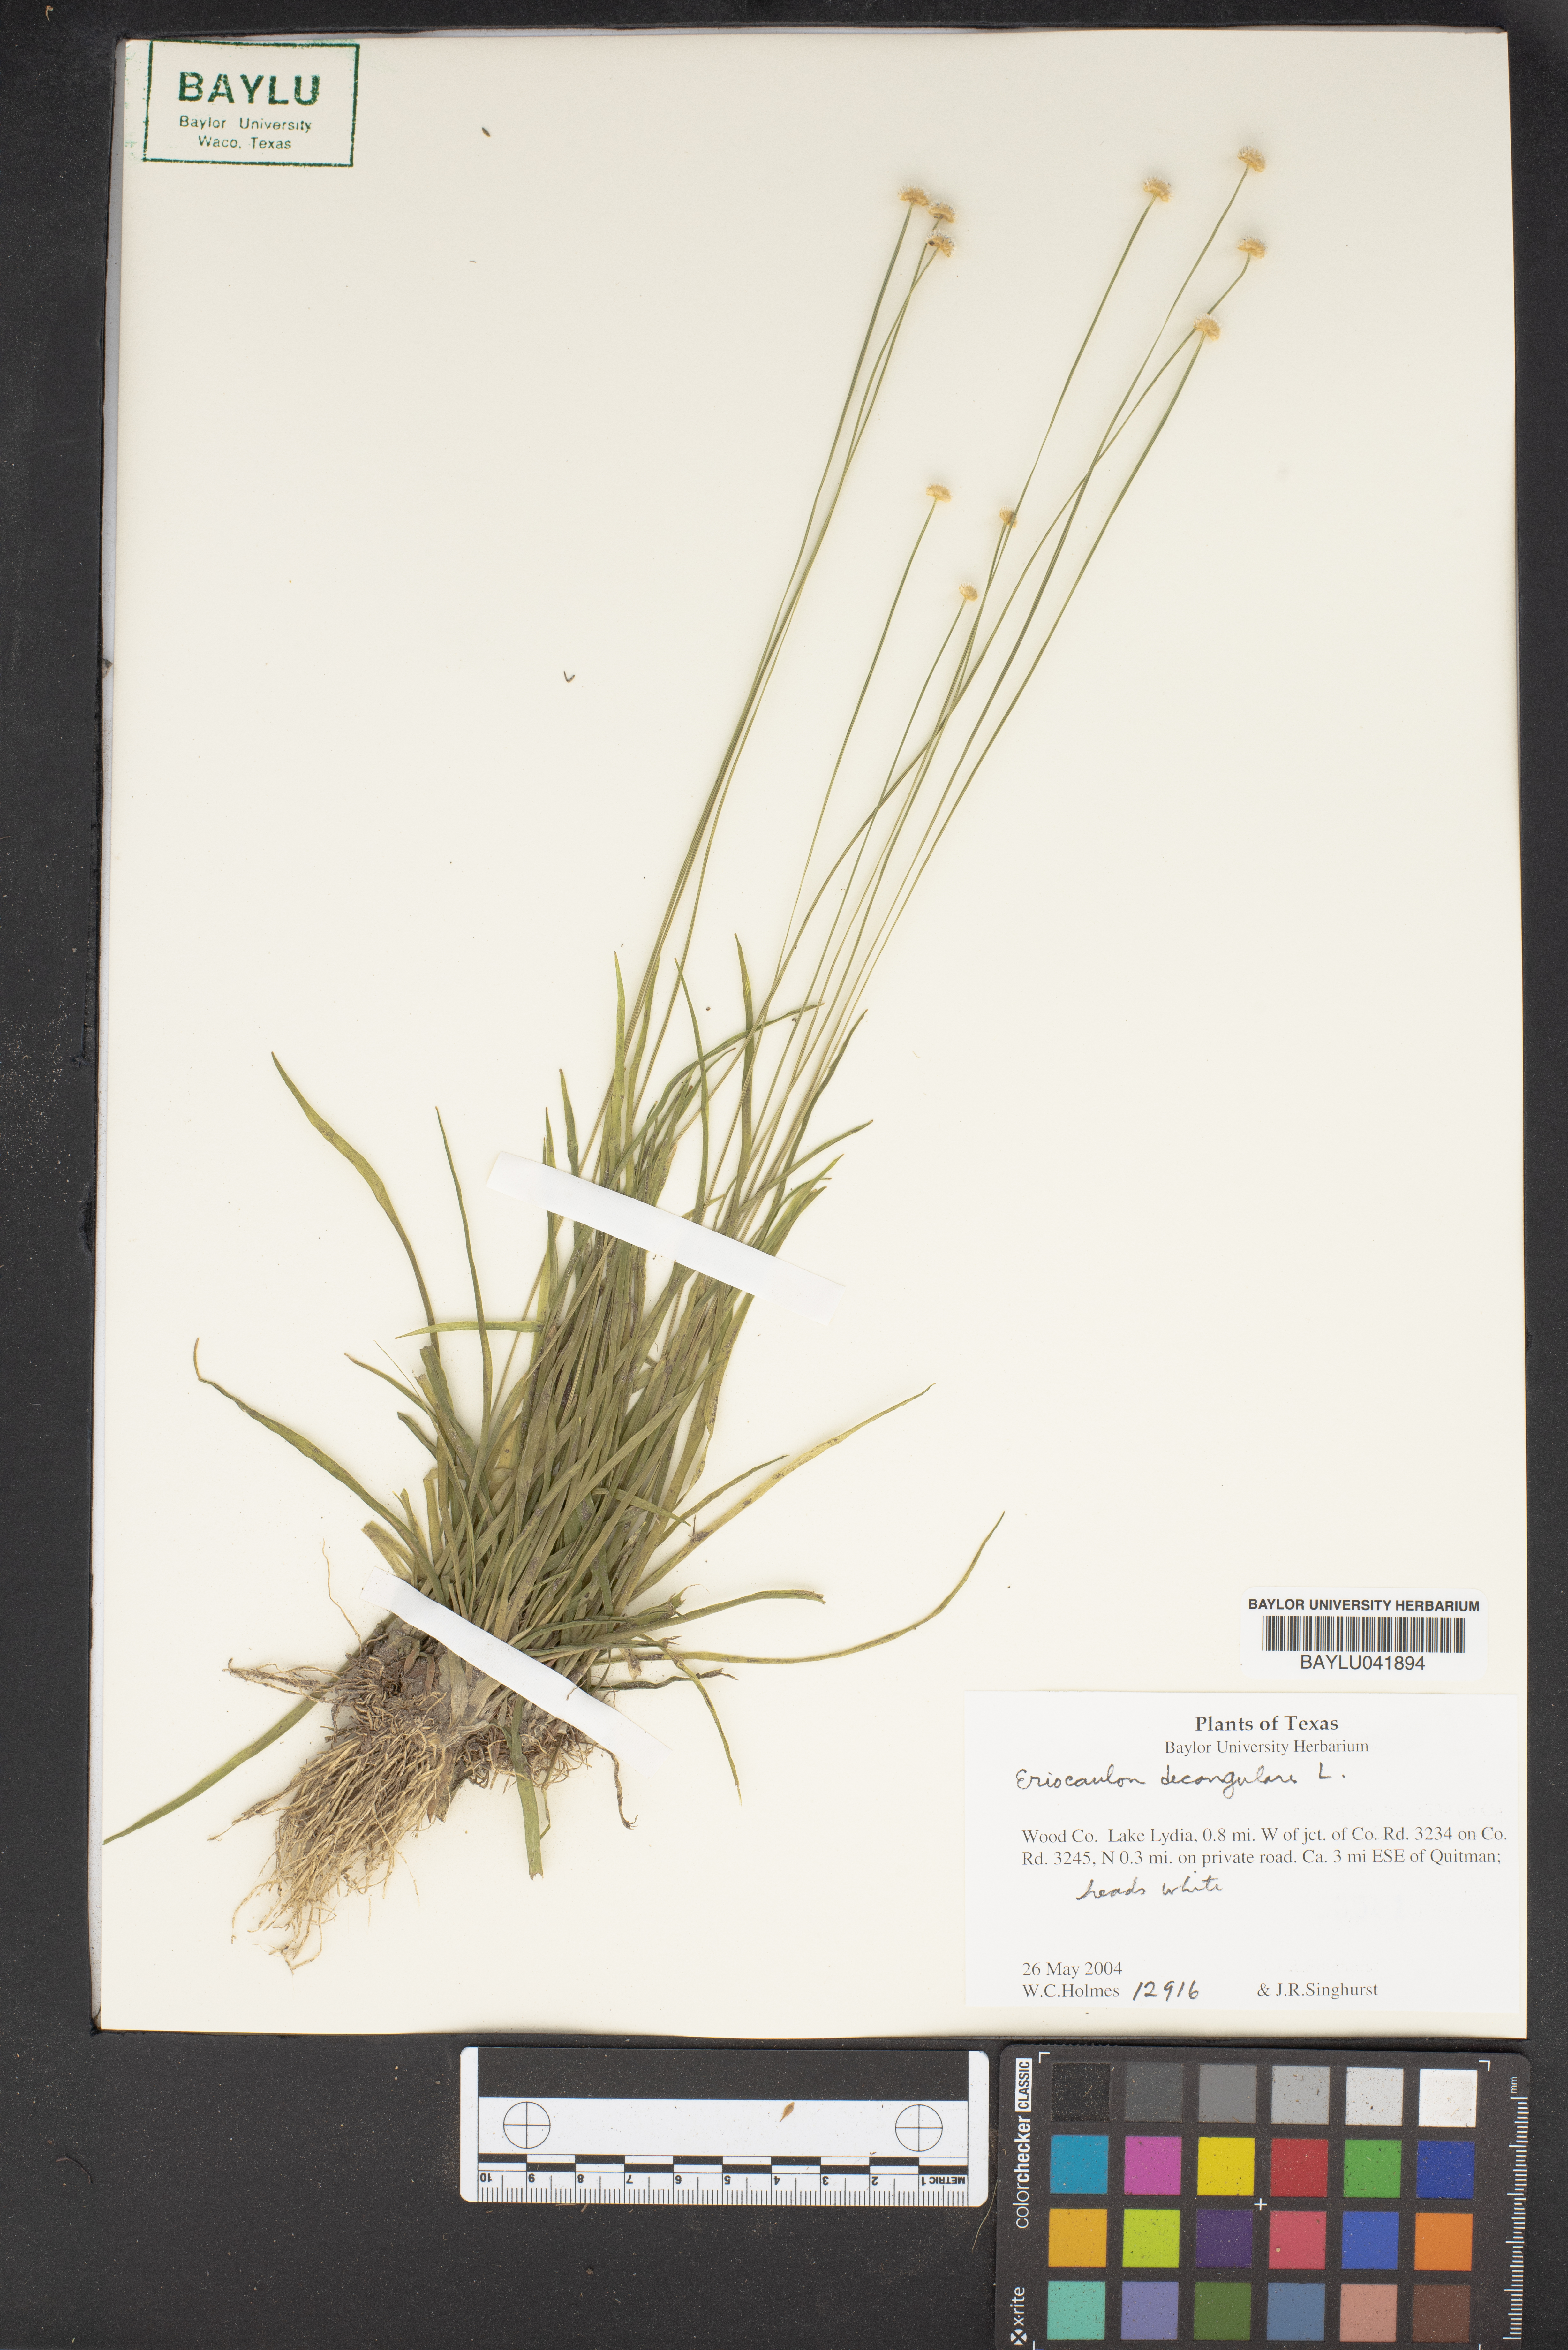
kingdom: Plantae
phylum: Tracheophyta
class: Liliopsida
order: Poales
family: Eriocaulaceae
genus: Eriocaulon
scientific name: Eriocaulon decangulare
